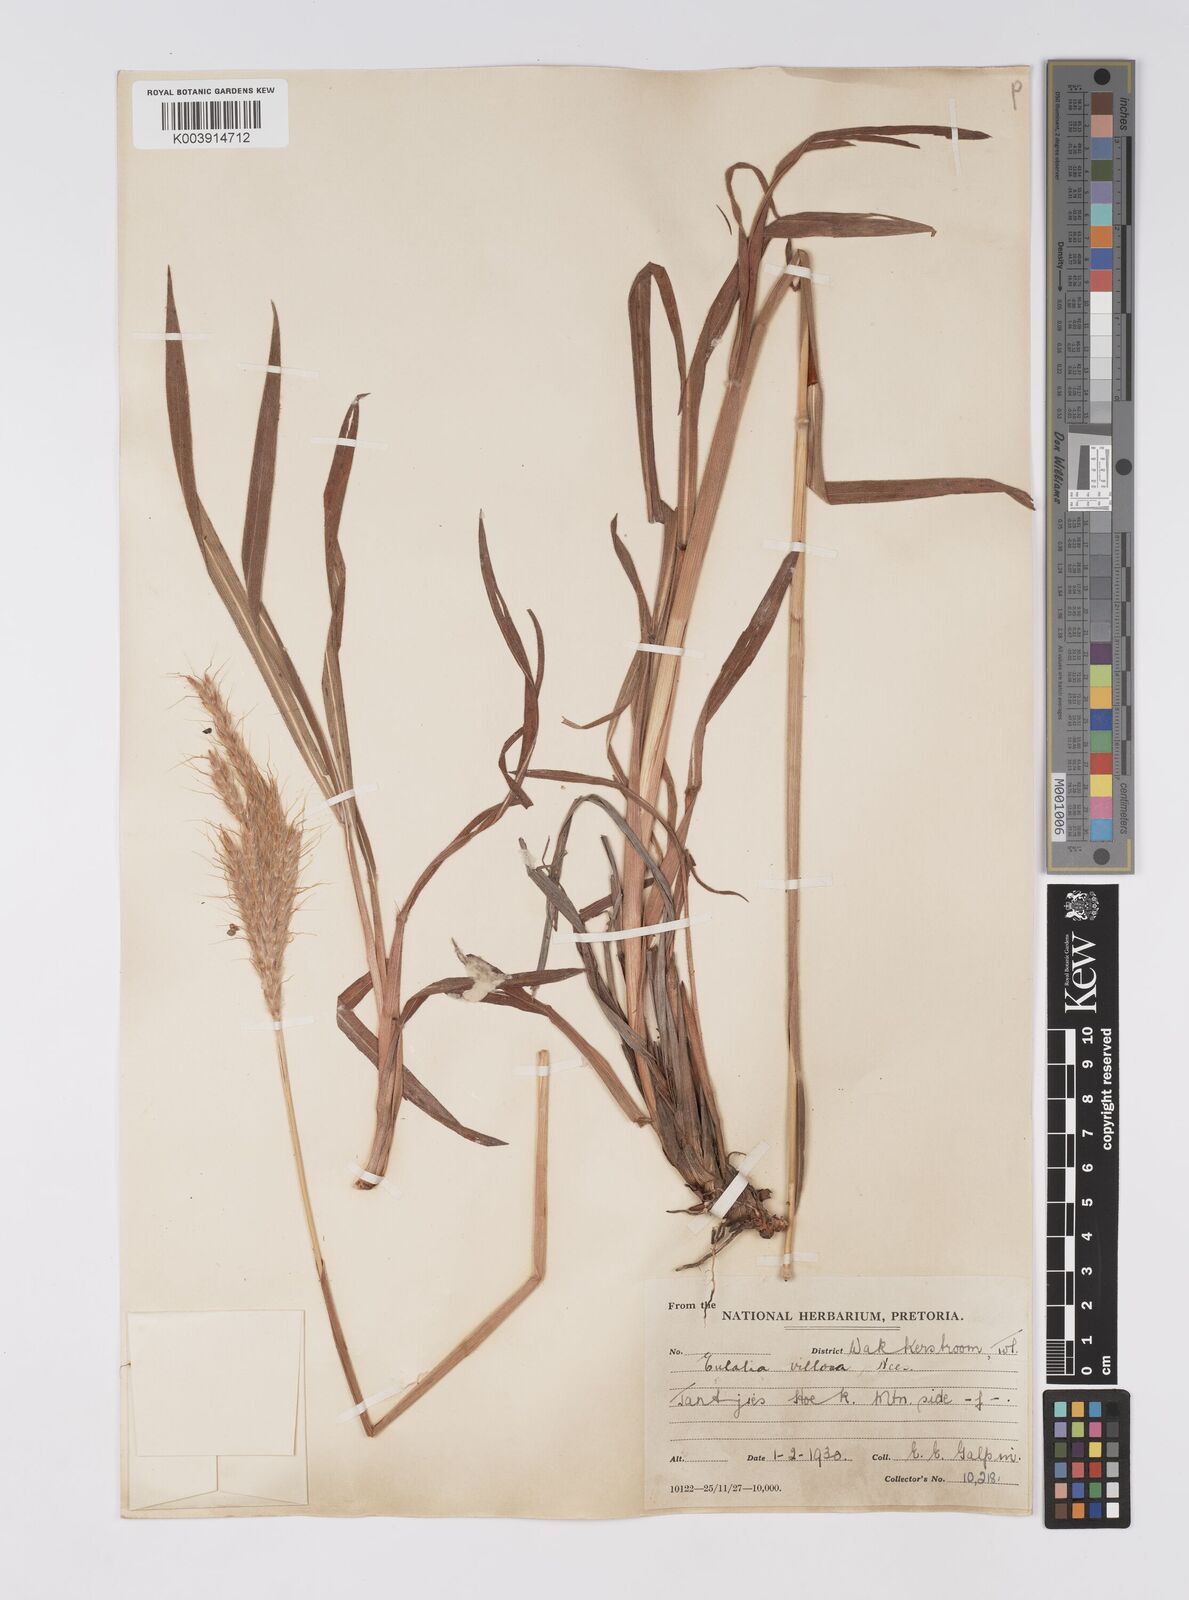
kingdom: Plantae
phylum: Tracheophyta
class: Liliopsida
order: Poales
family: Poaceae
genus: Eulalia
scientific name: Eulalia villosa
